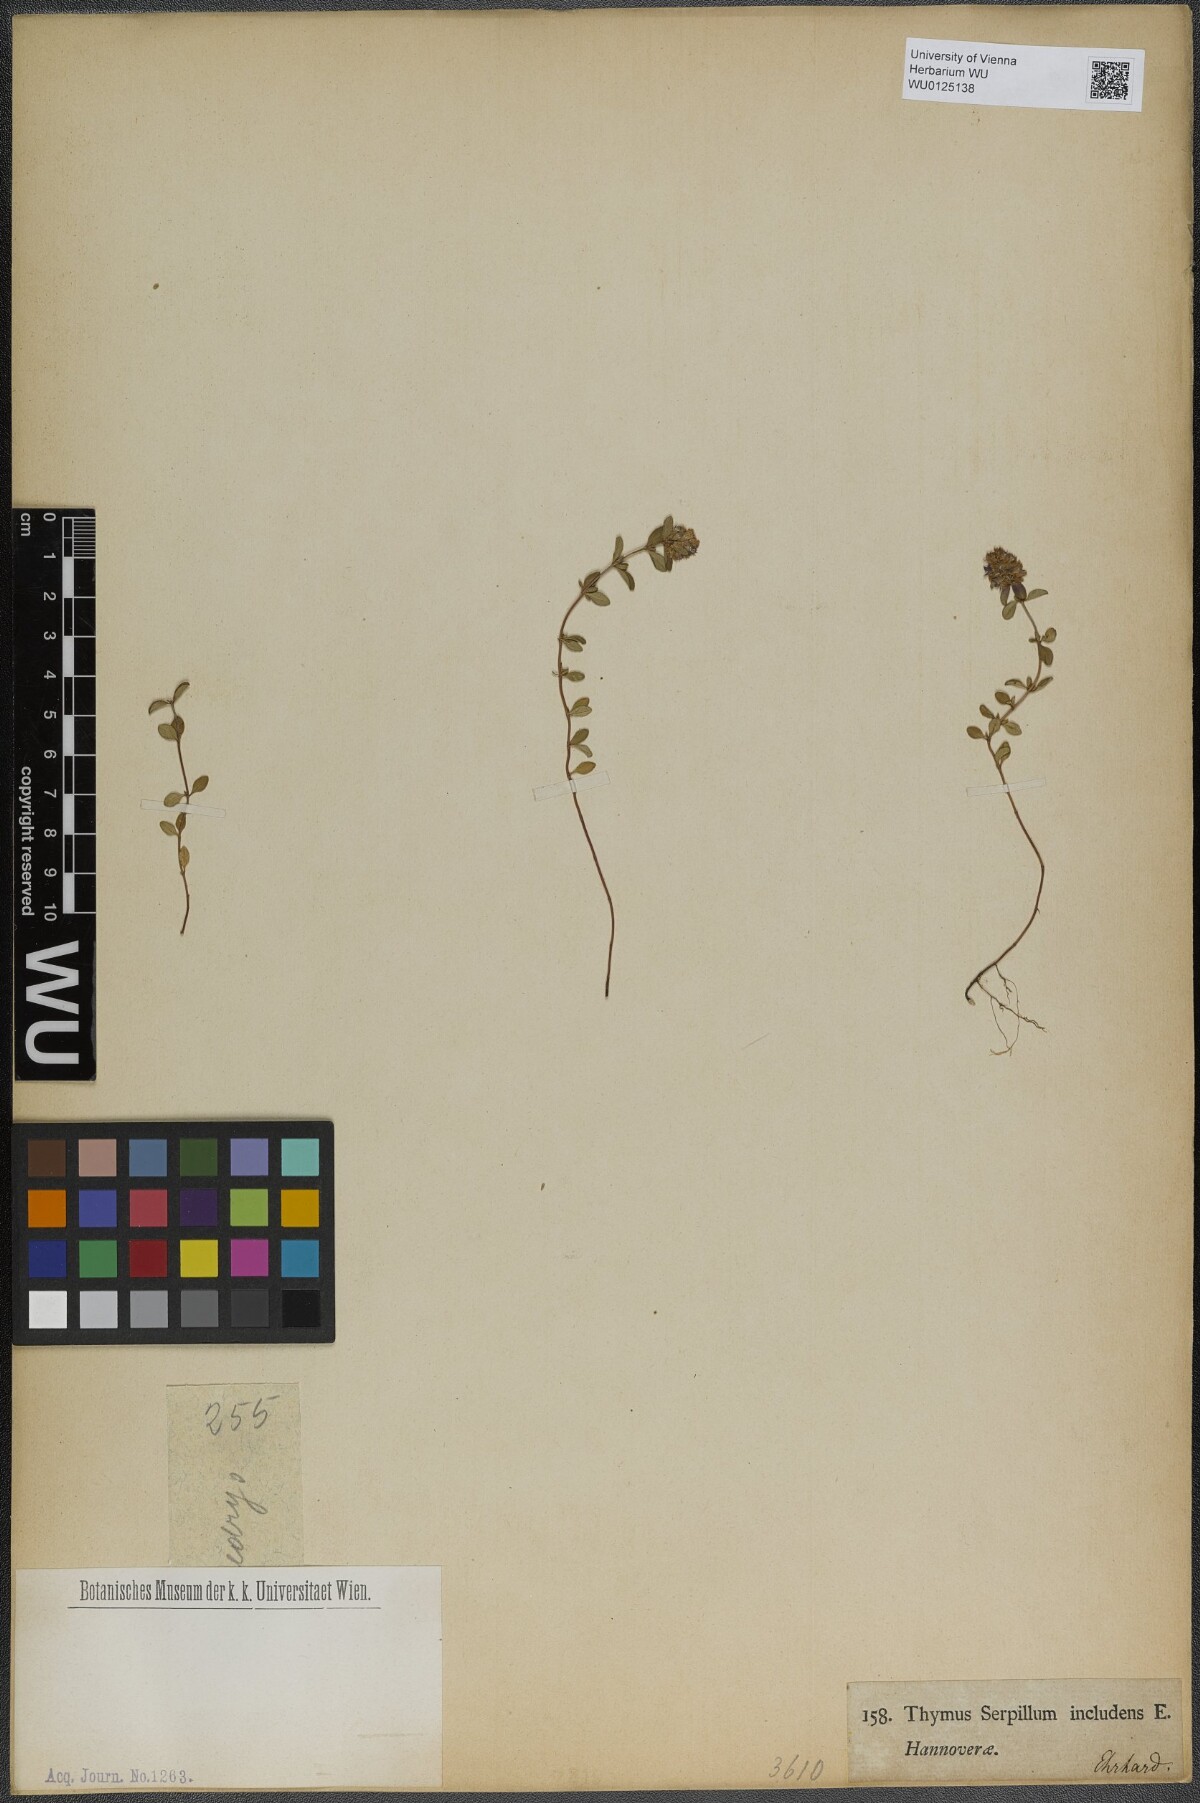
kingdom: Plantae
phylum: Tracheophyta
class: Magnoliopsida
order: Lamiales
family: Lamiaceae
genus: Thymus
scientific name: Thymus pulegioides
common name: Large thyme
